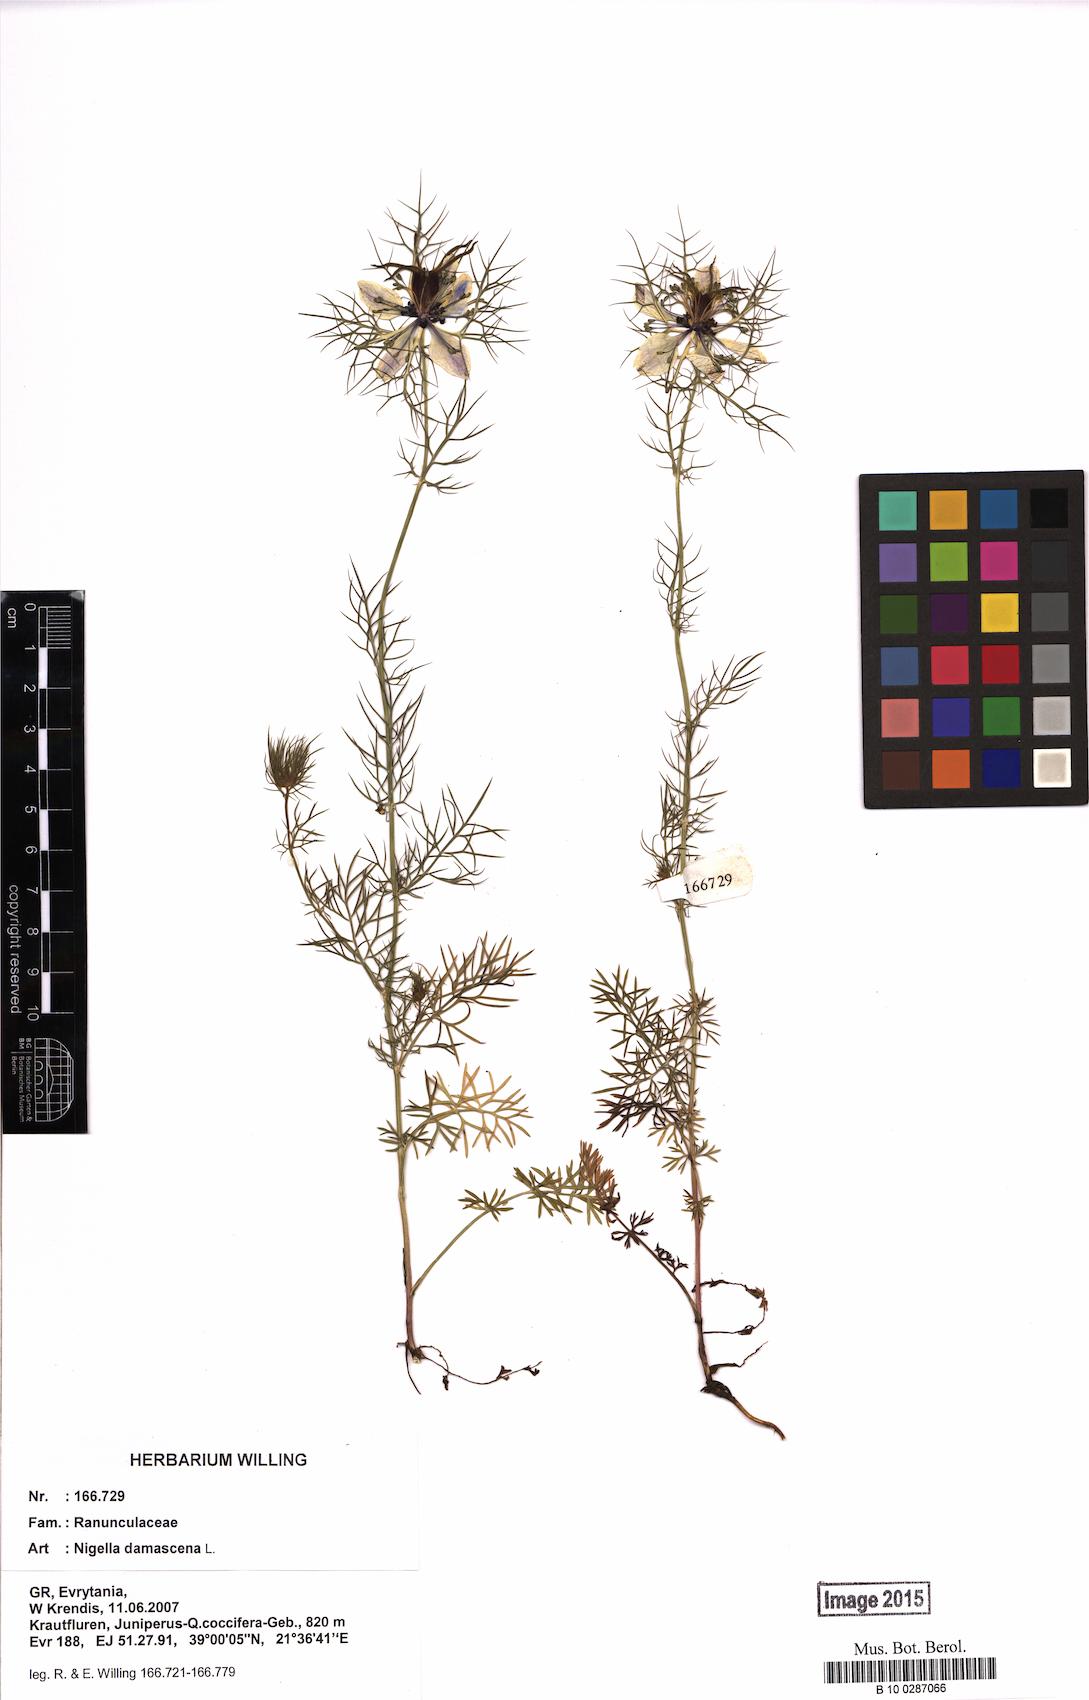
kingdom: Plantae
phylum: Tracheophyta
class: Magnoliopsida
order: Ranunculales
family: Ranunculaceae
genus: Nigella
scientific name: Nigella damascena
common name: Love-in-a-mist
